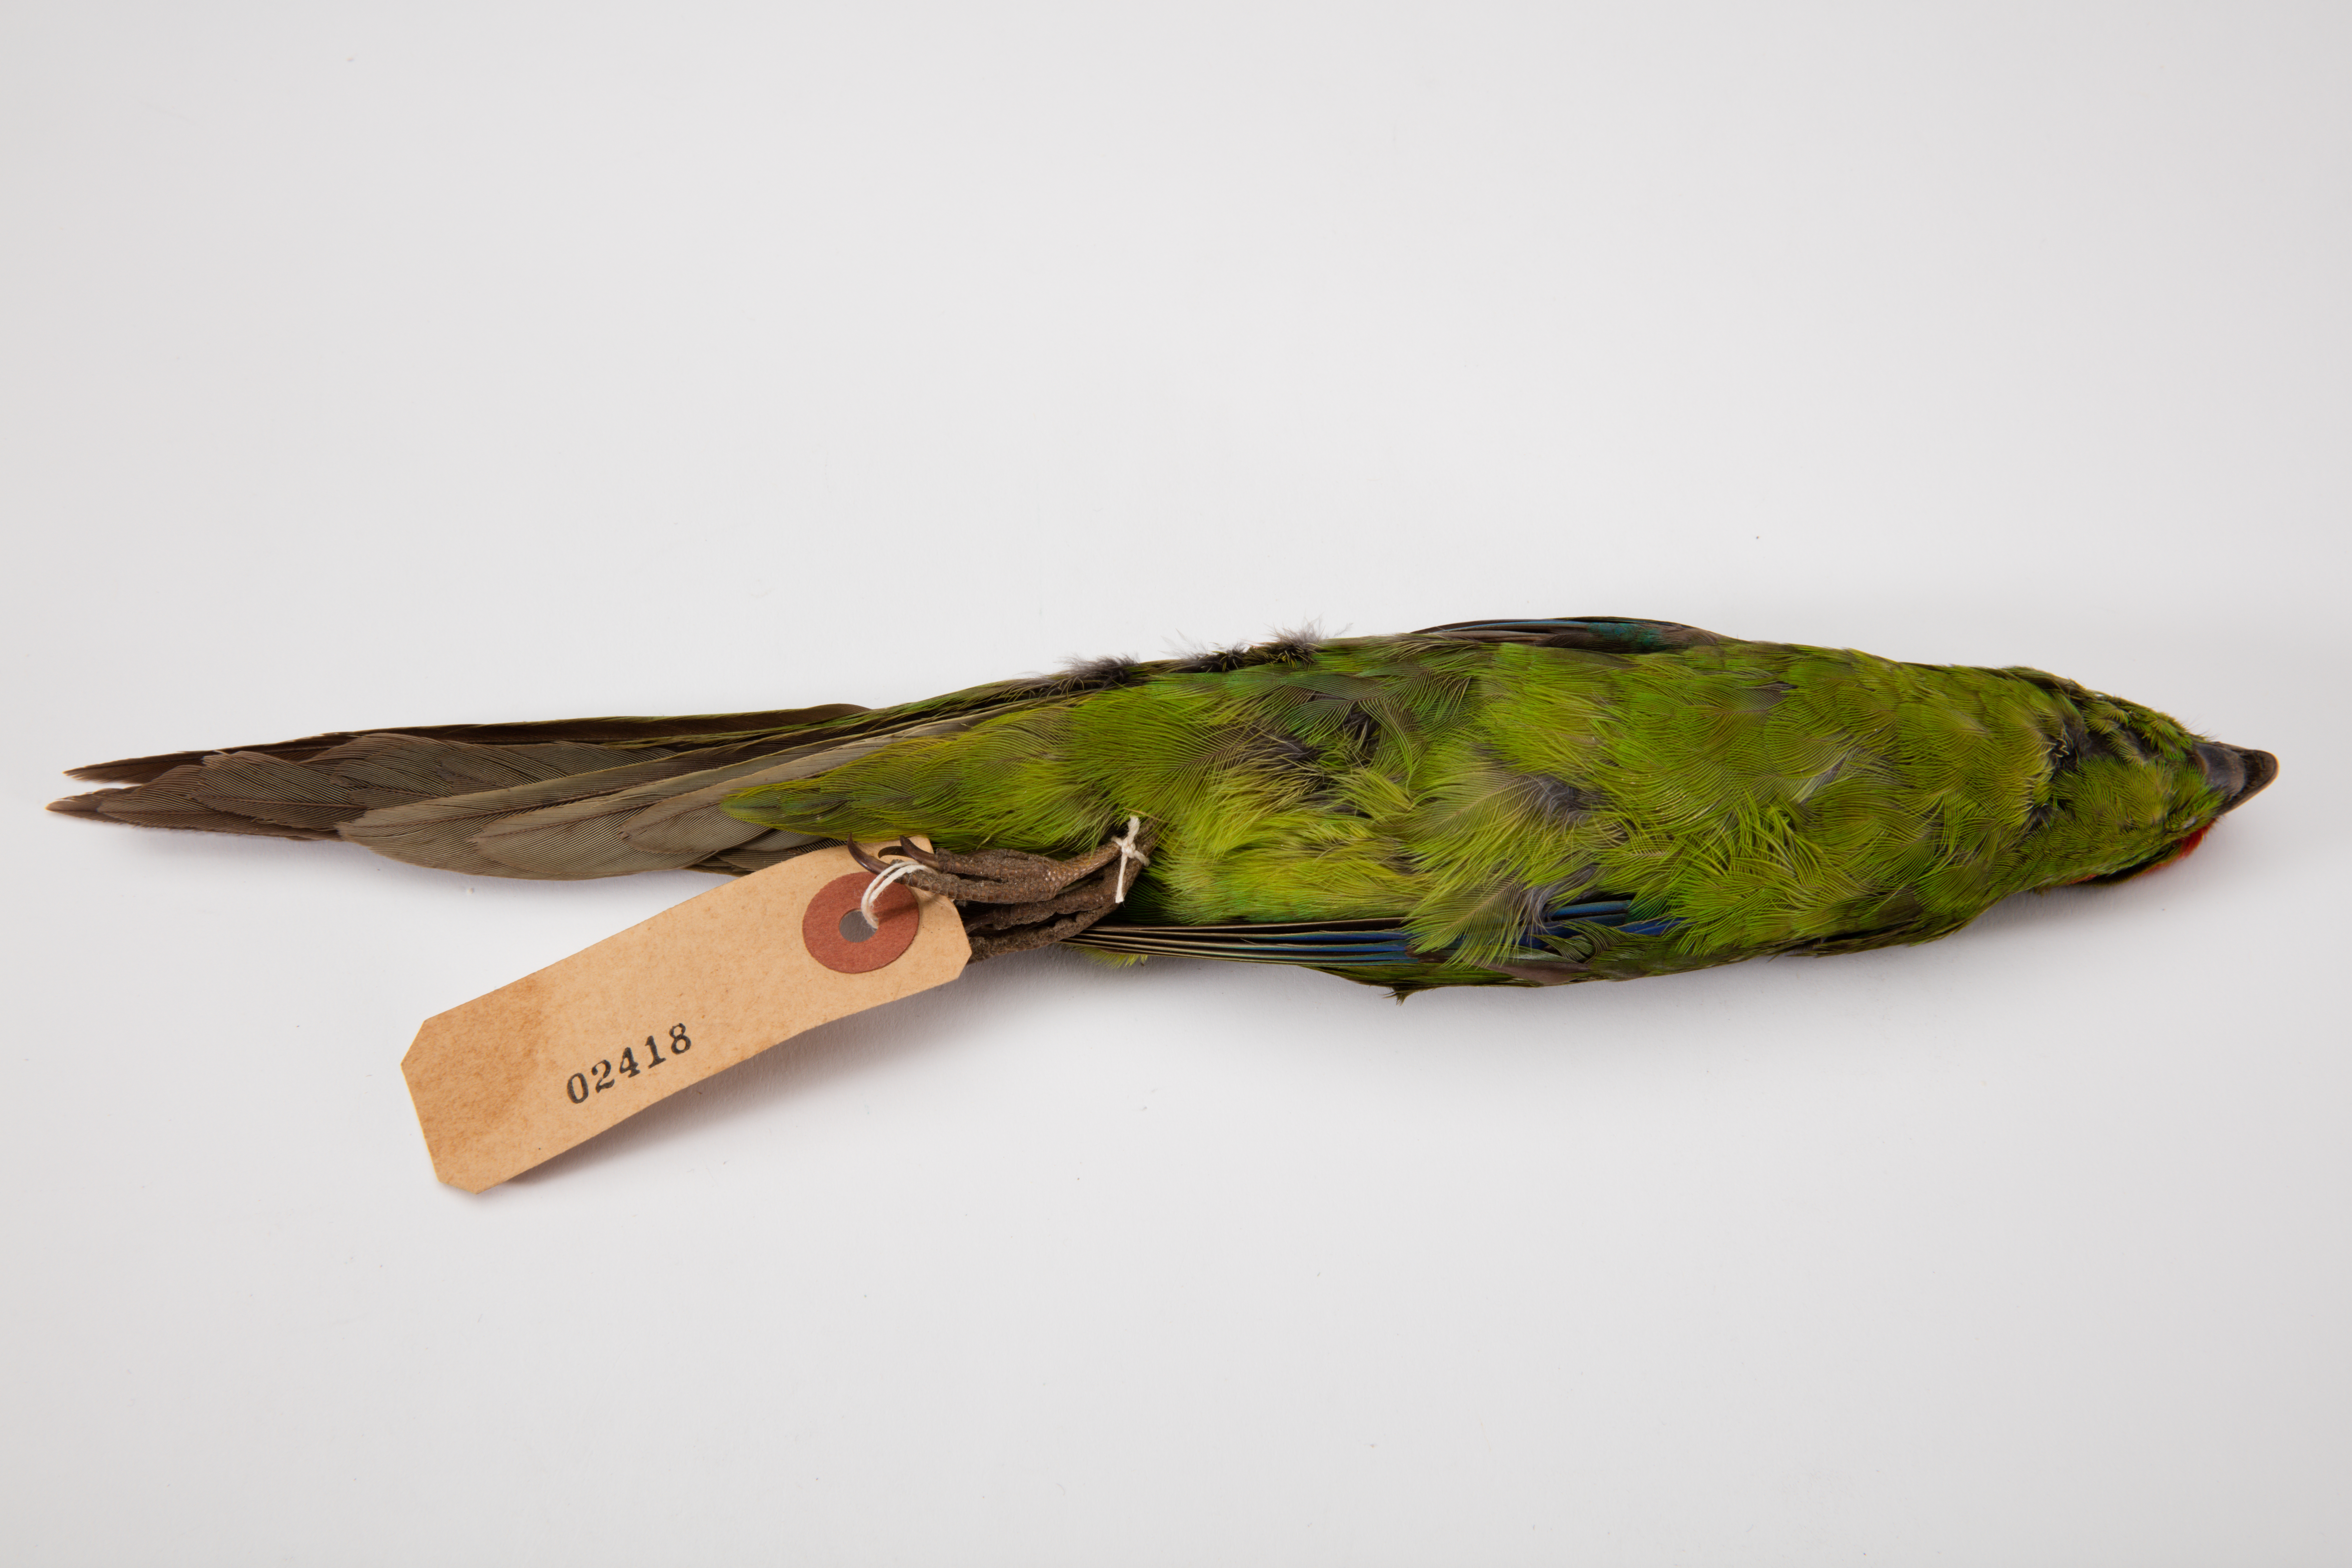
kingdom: Animalia
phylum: Chordata
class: Aves
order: Psittaciformes
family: Psittacidae
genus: Cyanoramphus
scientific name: Cyanoramphus novaezelandiae
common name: Red-fronted parakeet
